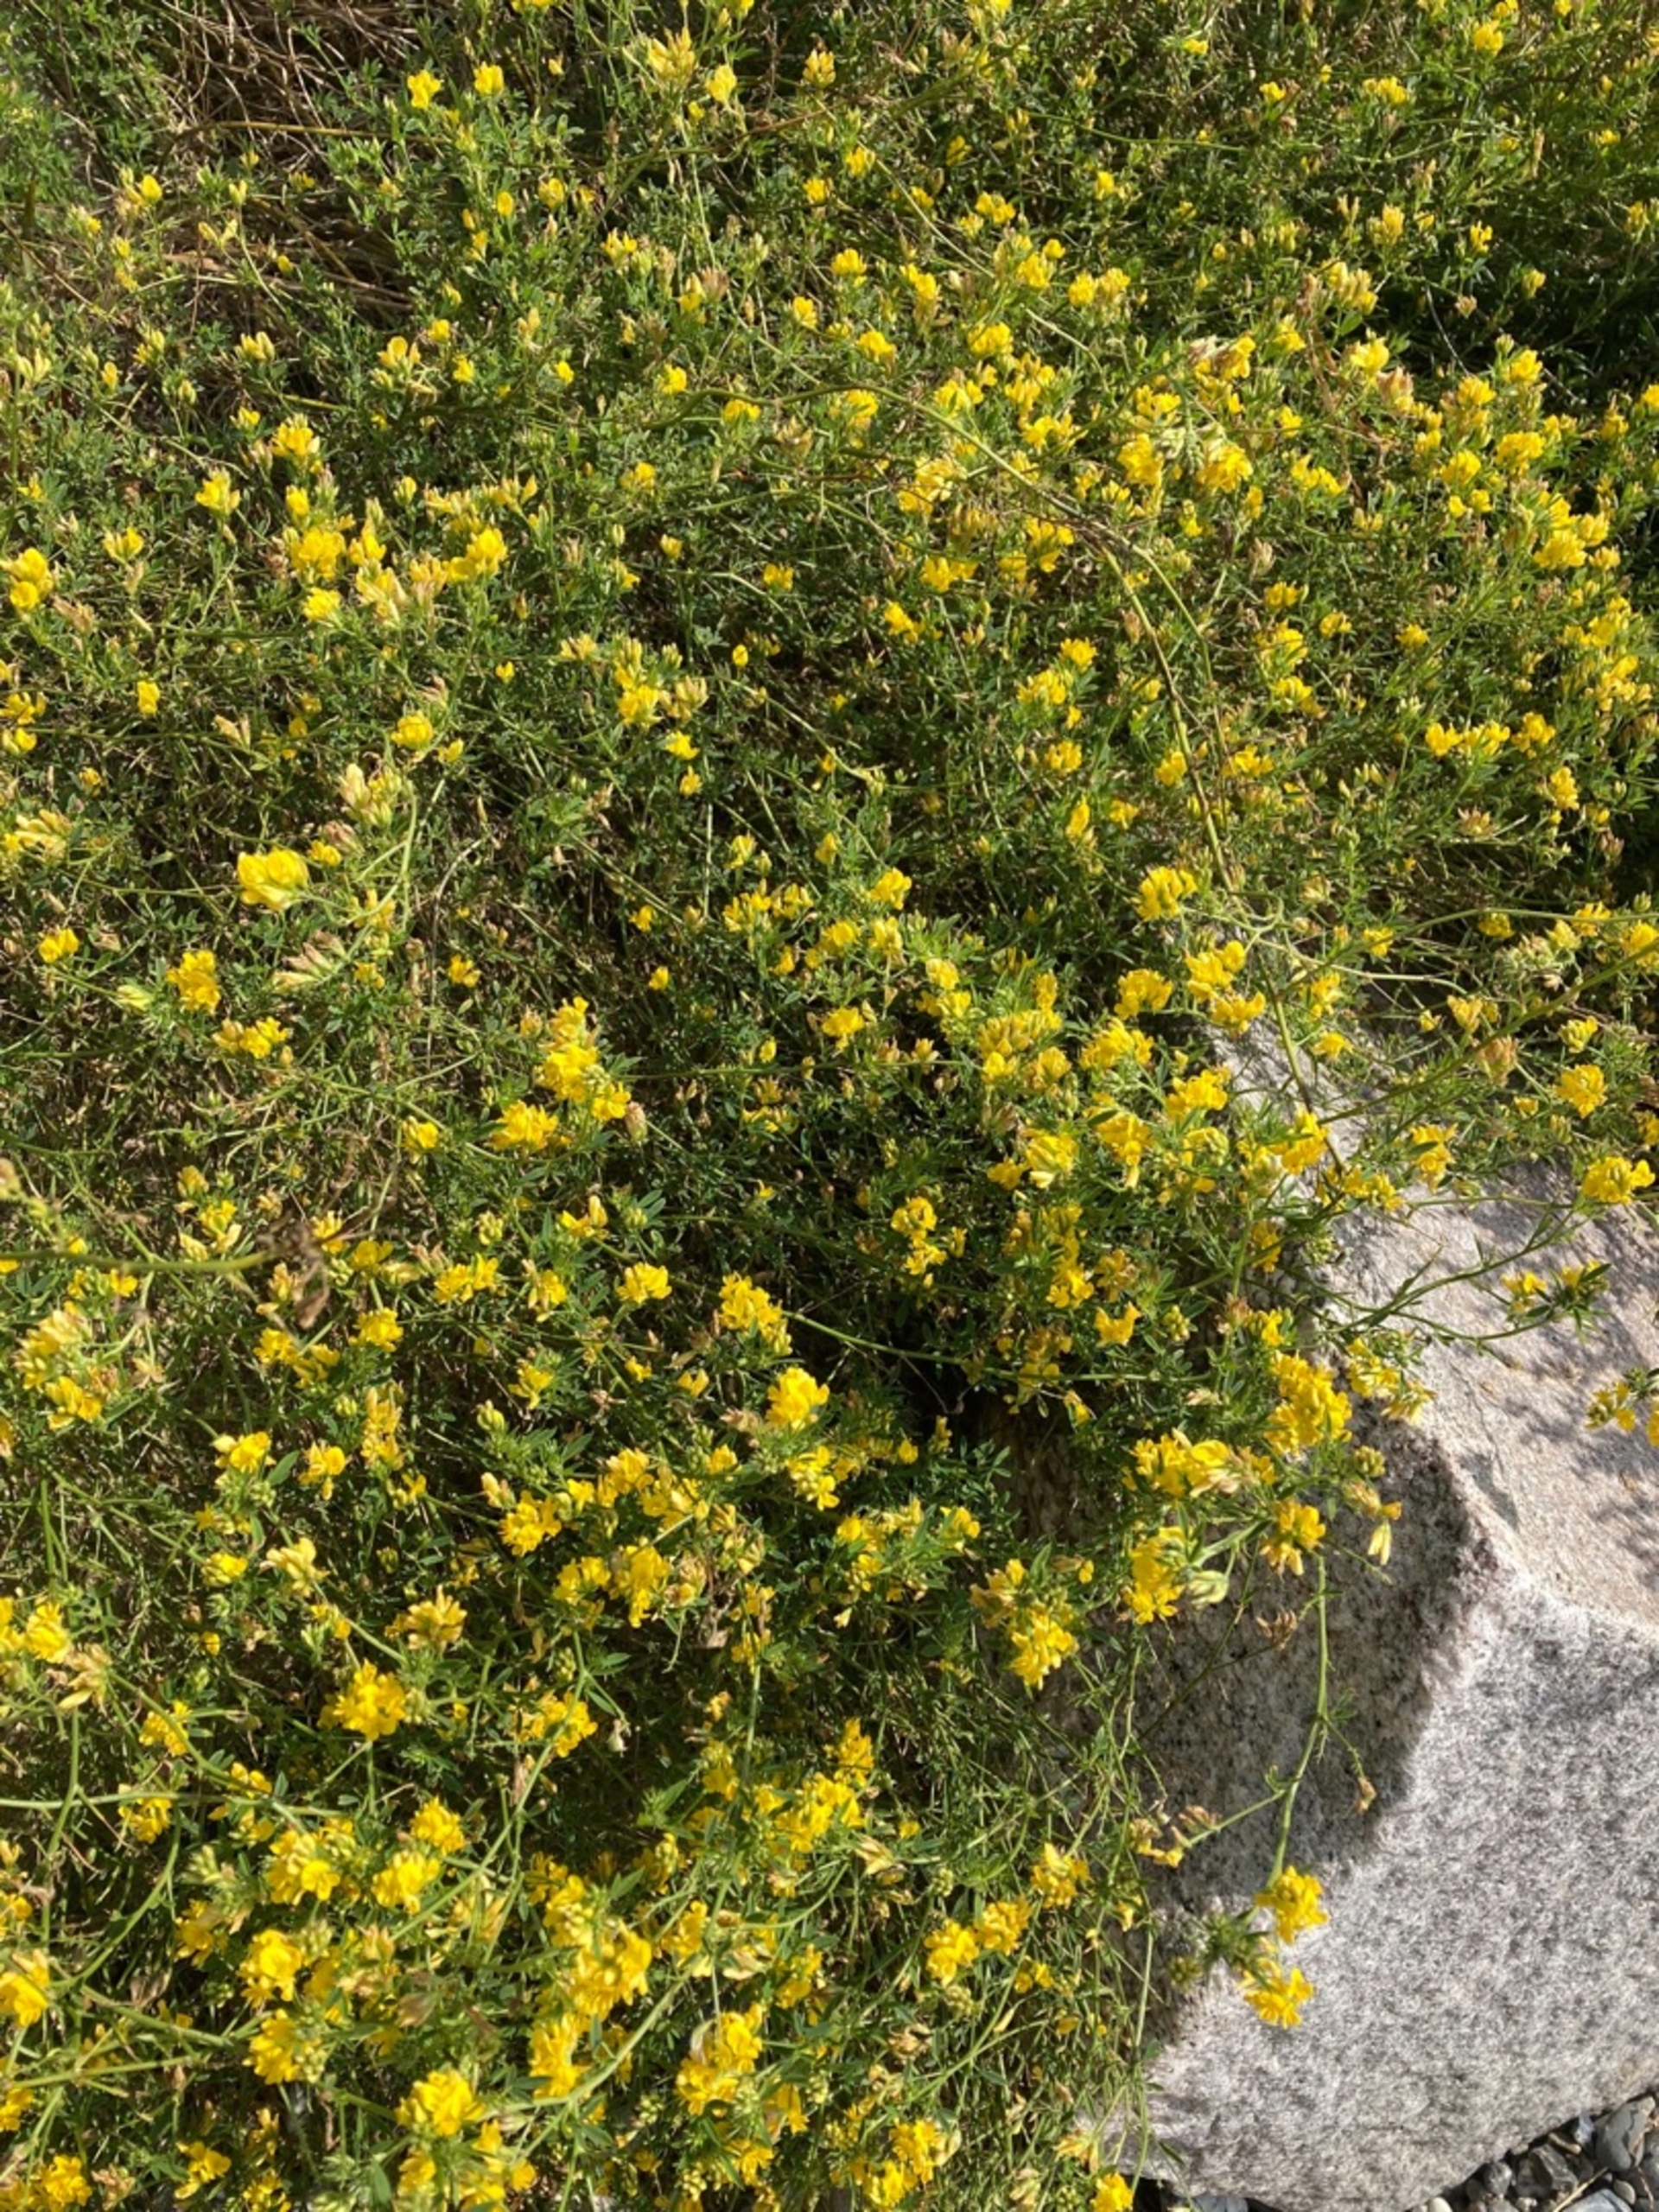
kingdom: Plantae
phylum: Tracheophyta
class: Magnoliopsida
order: Fabales
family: Fabaceae
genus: Medicago
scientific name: Medicago falcata
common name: Segl-sneglebælg
